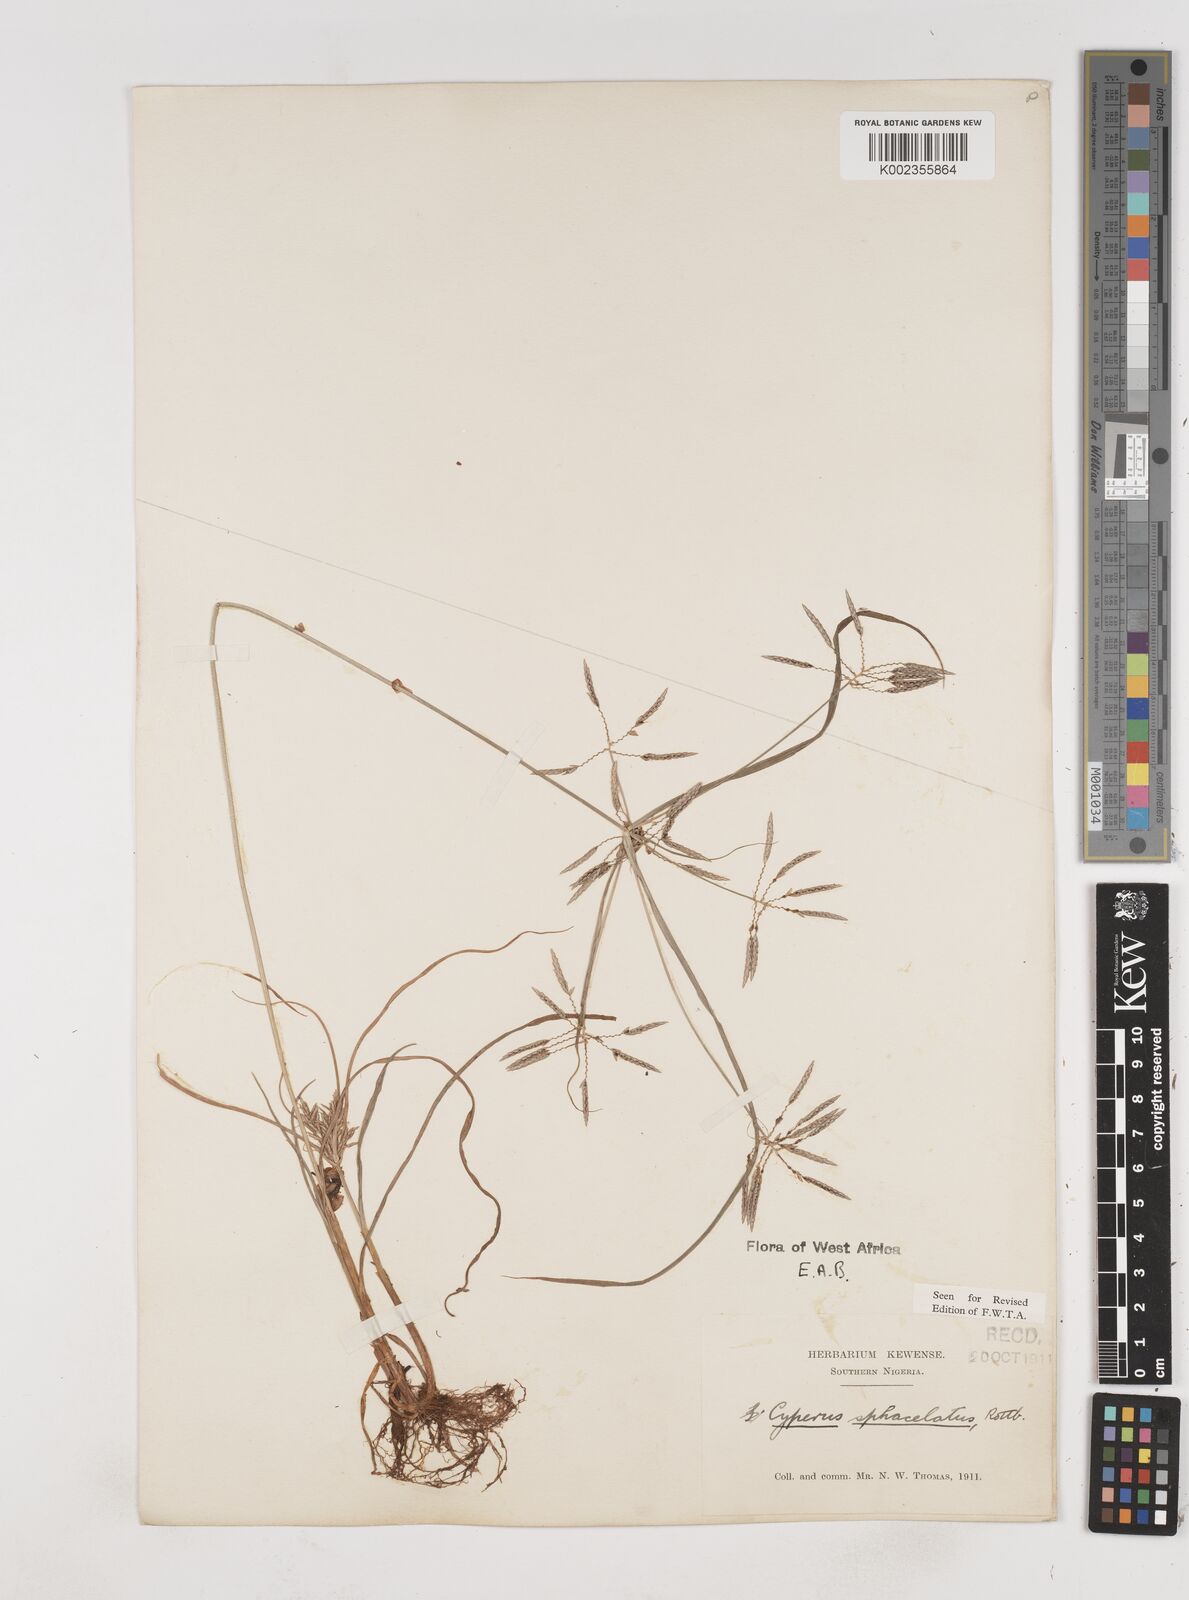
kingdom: Plantae
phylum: Tracheophyta
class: Liliopsida
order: Poales
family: Cyperaceae
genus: Cyperus
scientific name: Cyperus sphacelatus
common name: Roadside flatsedge
